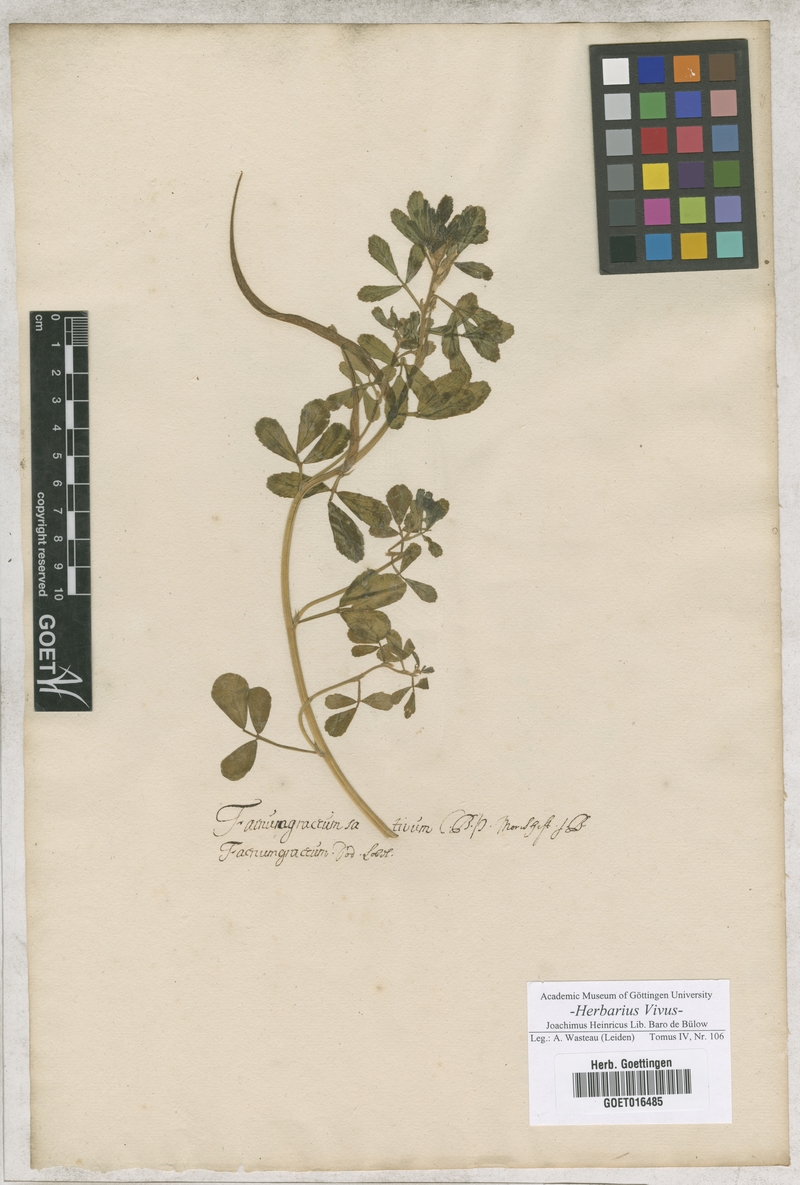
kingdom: Plantae
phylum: Tracheophyta
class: Magnoliopsida
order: Fabales
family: Fabaceae
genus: Trigonella
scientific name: Trigonella foenum-graecum
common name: Fenugreek
